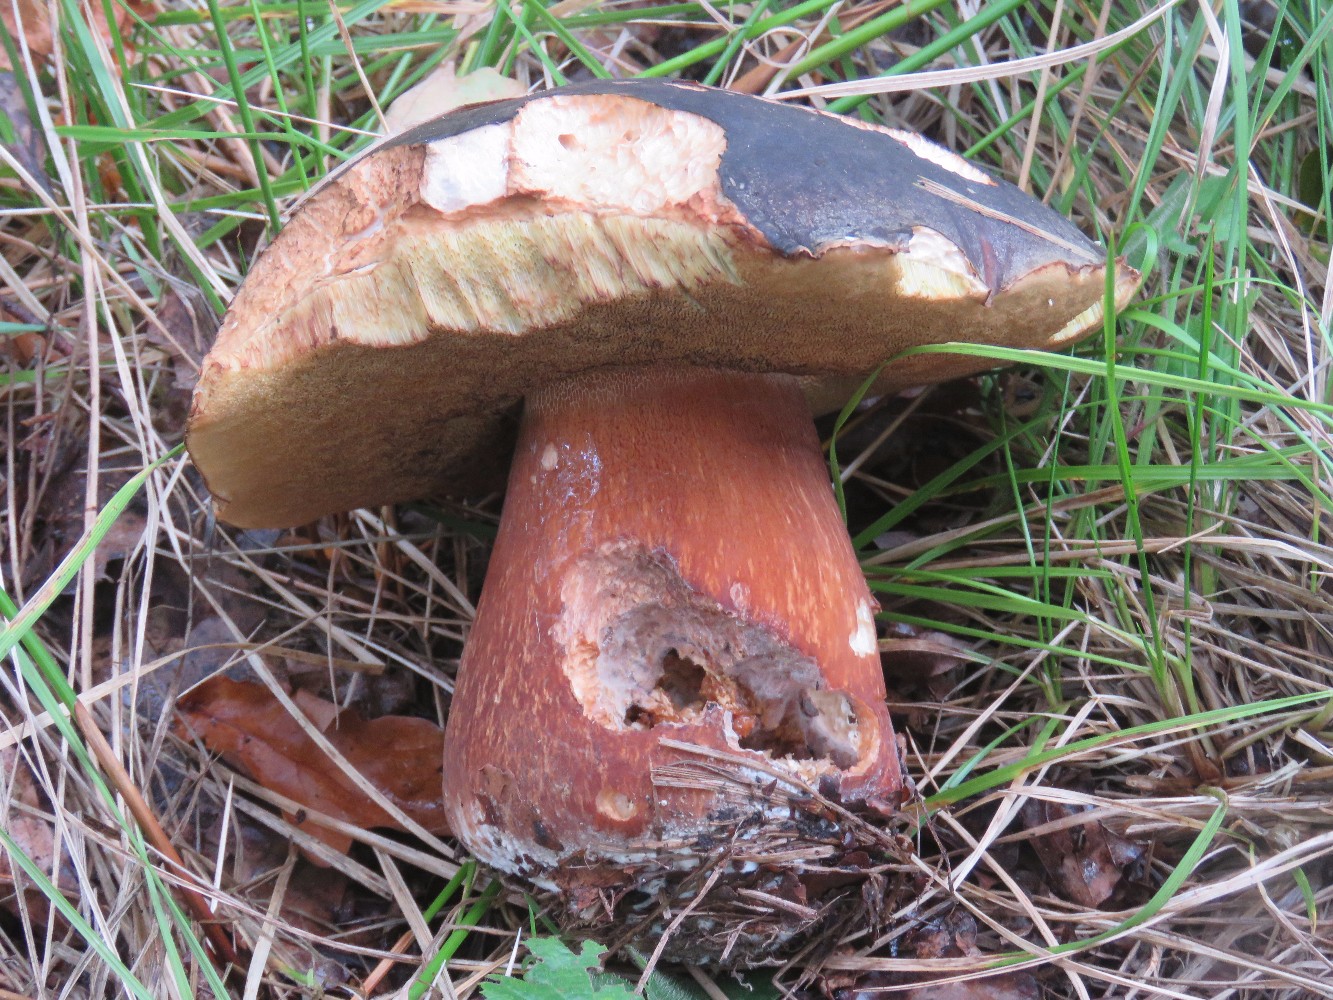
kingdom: Fungi
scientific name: Fungi
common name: bronze-rørhat
